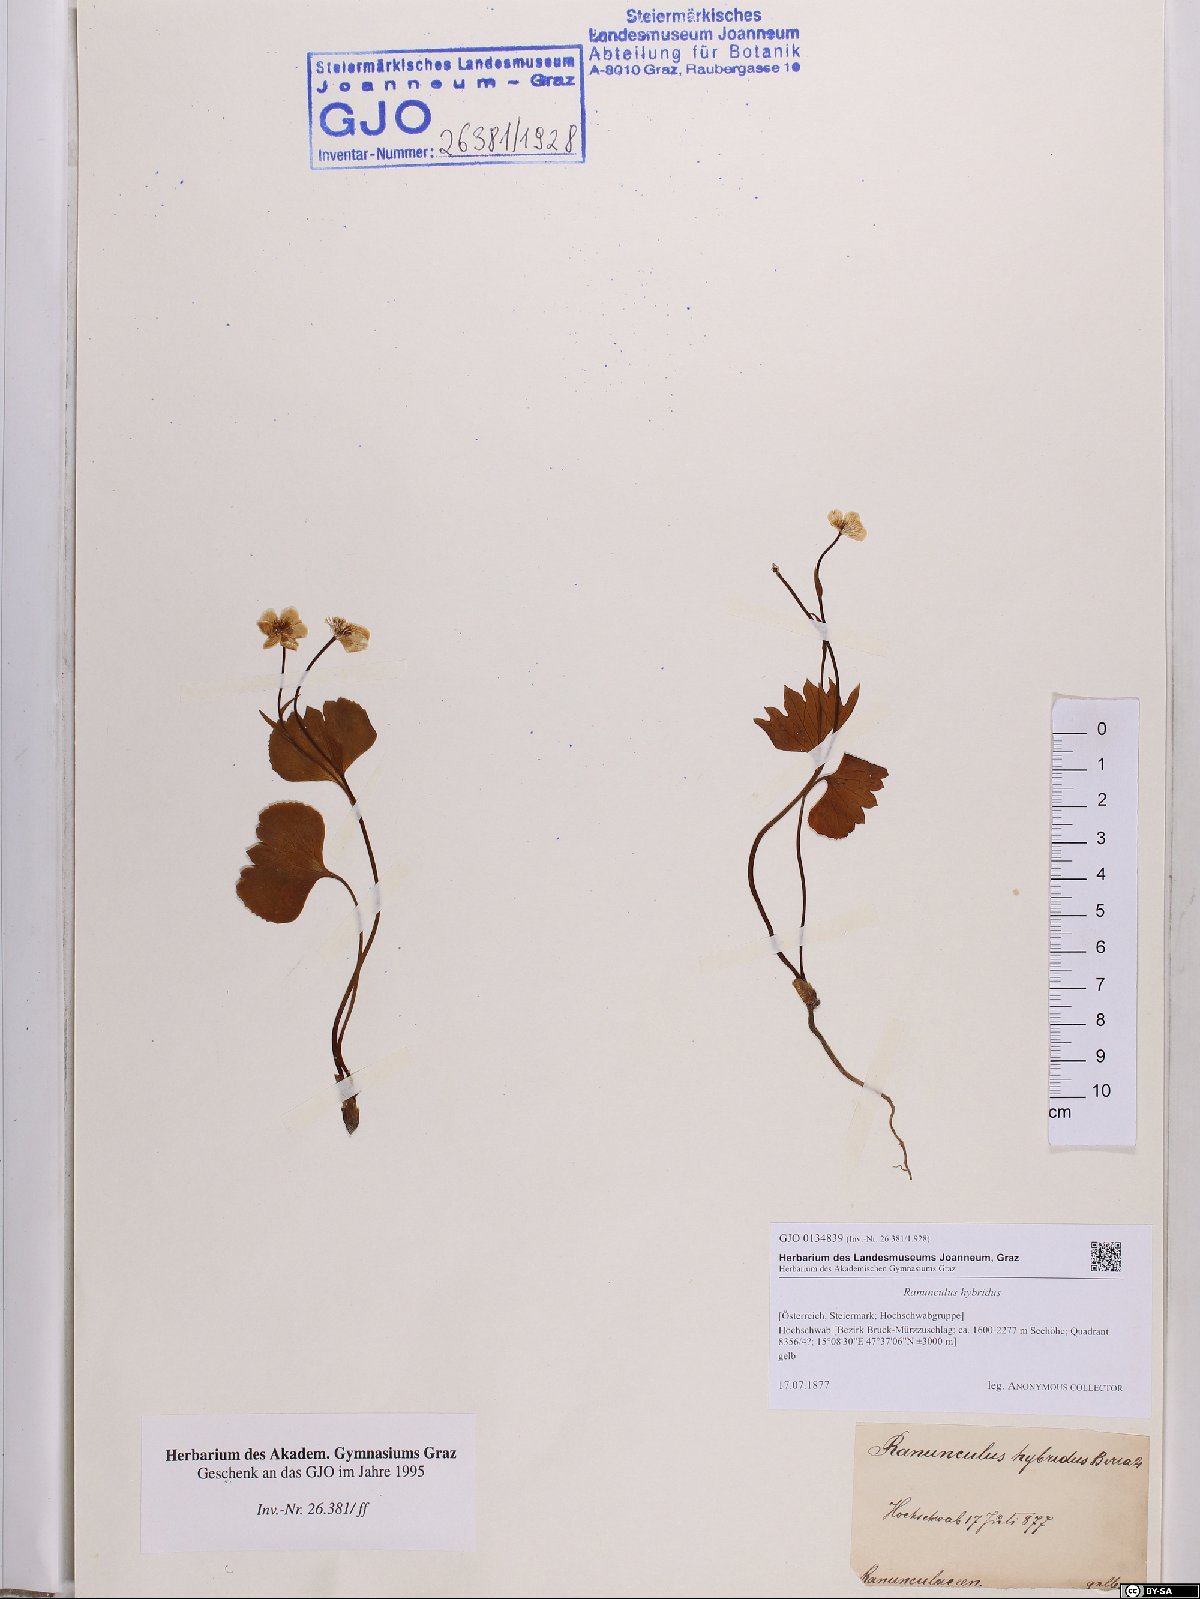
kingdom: Plantae
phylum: Tracheophyta
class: Magnoliopsida
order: Ranunculales
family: Ranunculaceae
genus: Ranunculus
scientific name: Ranunculus hybridus
